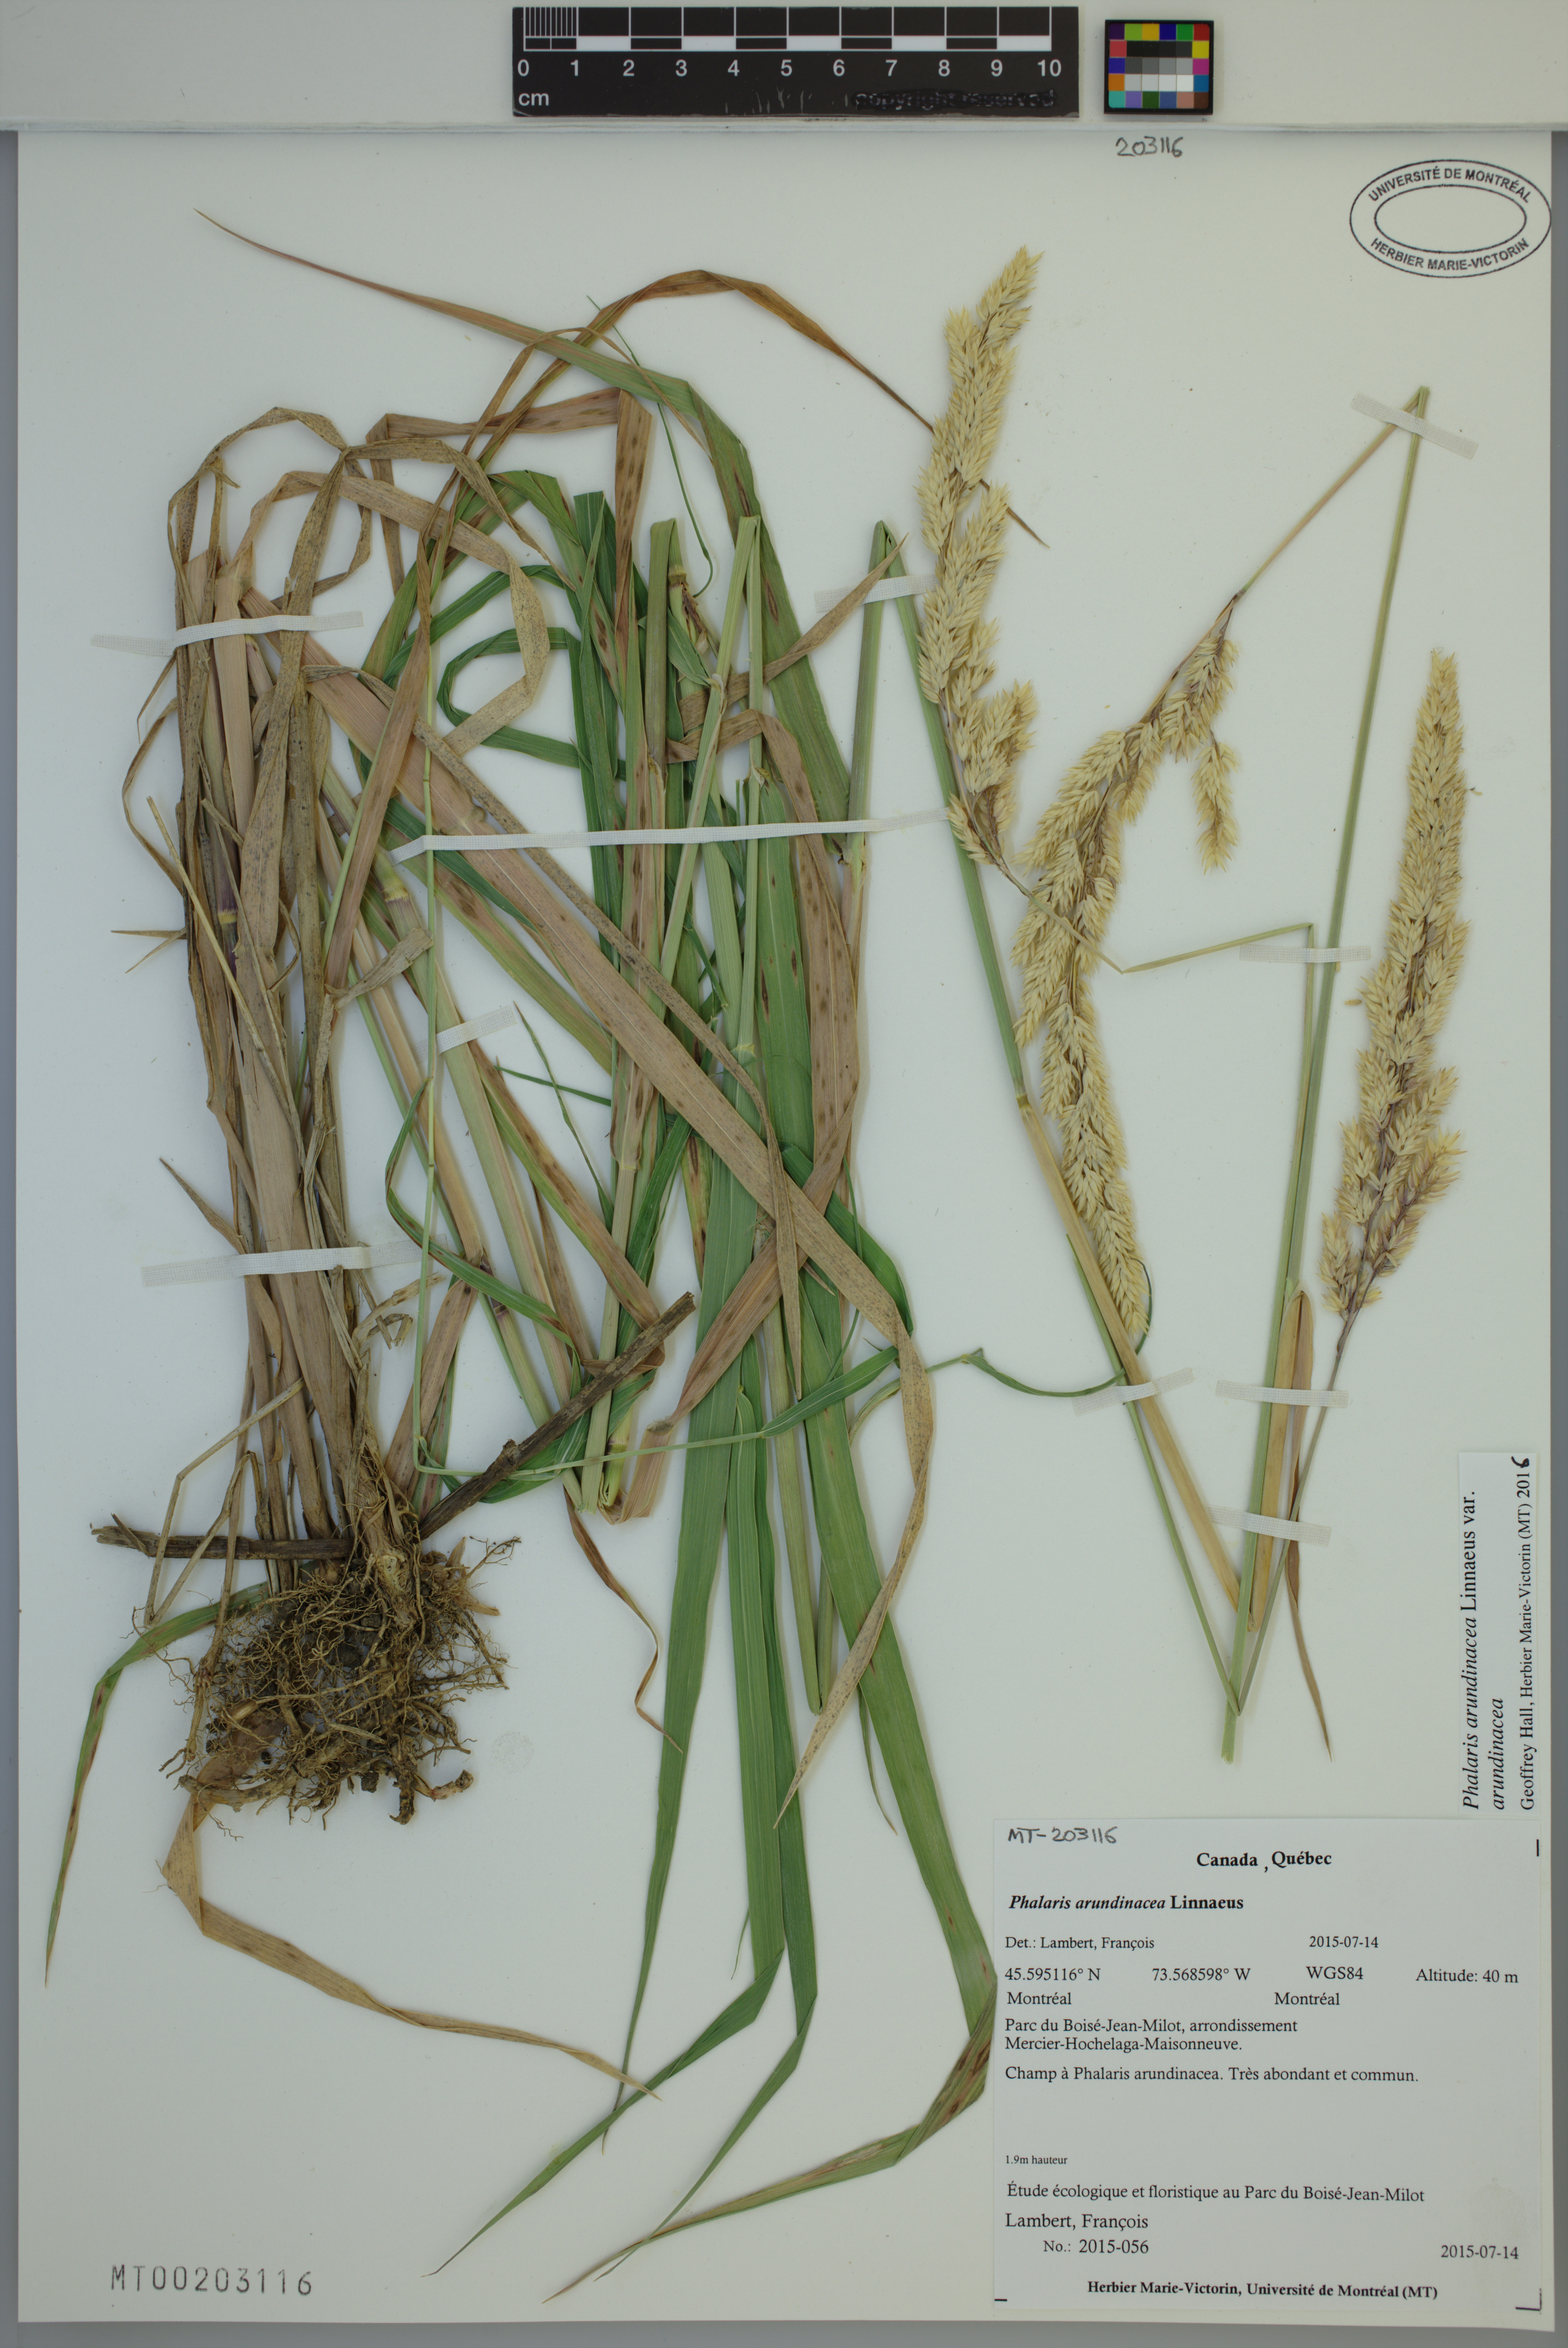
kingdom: Plantae
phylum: Tracheophyta
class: Liliopsida
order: Poales
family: Poaceae
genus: Phalaris
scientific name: Phalaris arundinacea
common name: Reed canary-grass
